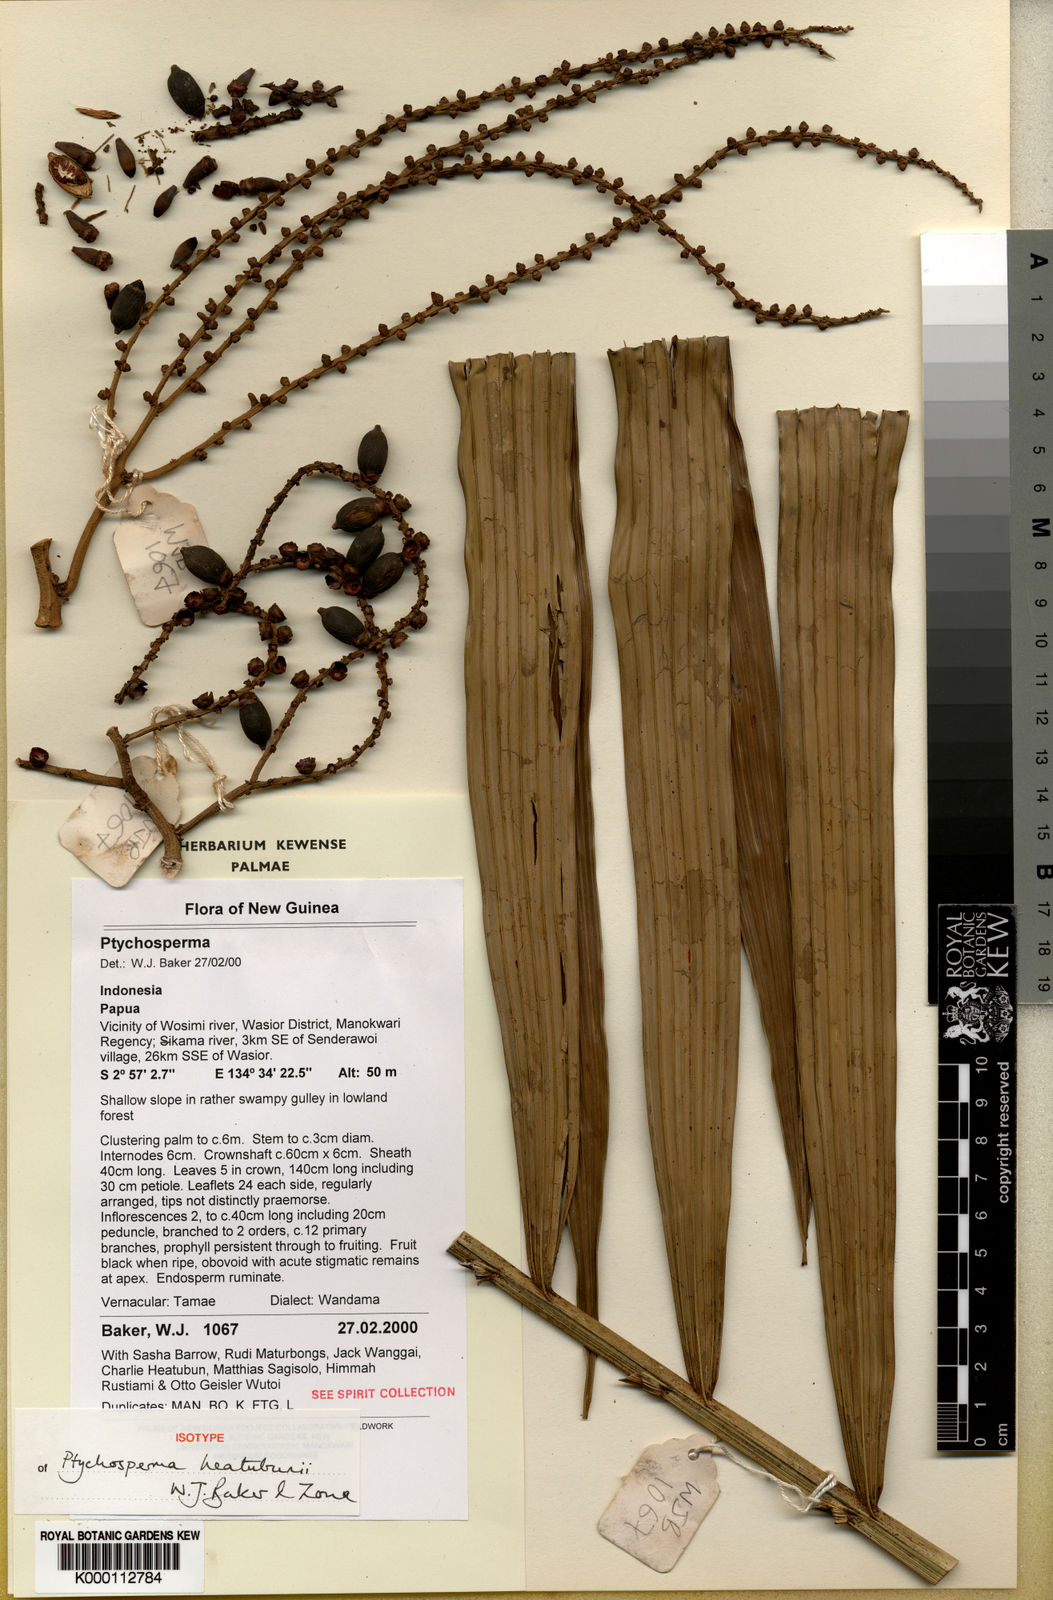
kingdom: Plantae
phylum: Tracheophyta
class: Liliopsida
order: Arecales
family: Arecaceae
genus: Dransfieldia
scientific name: Dransfieldia micrantha
